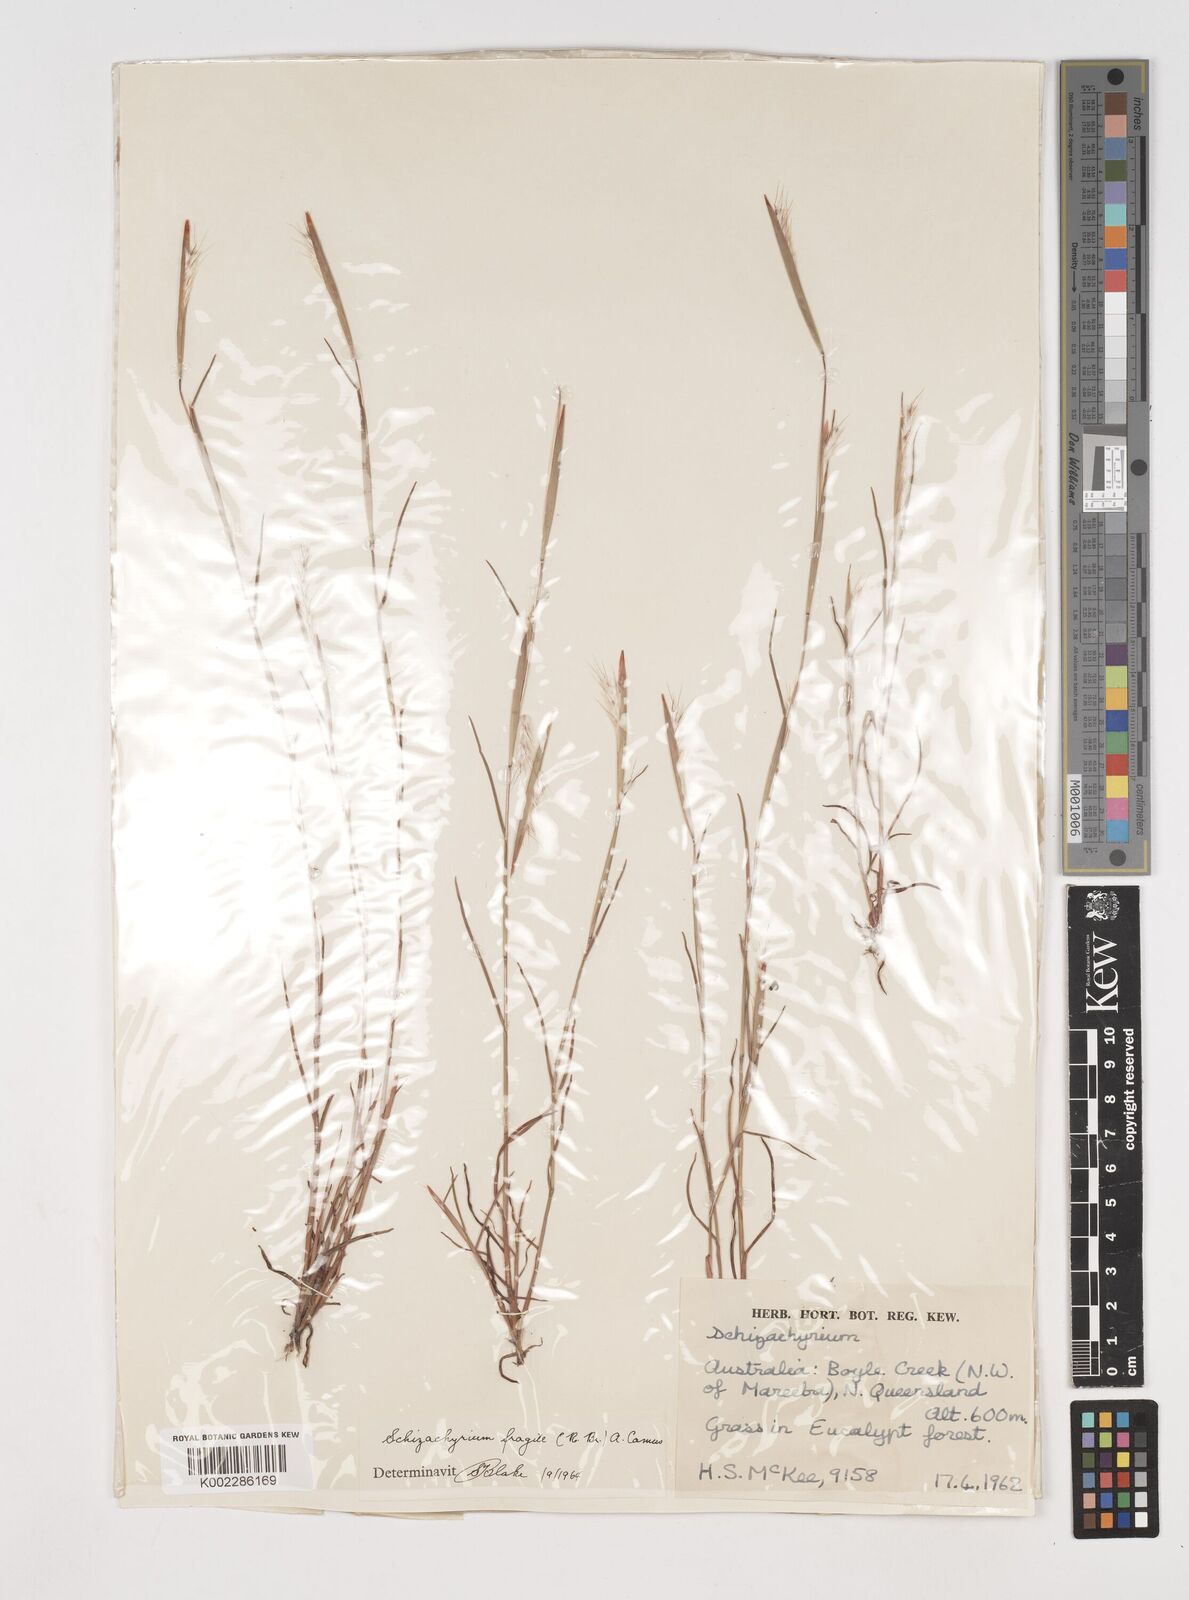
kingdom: Plantae
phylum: Tracheophyta
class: Liliopsida
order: Poales
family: Poaceae
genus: Schizachyrium
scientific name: Schizachyrium fragile
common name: Red spathe grass
